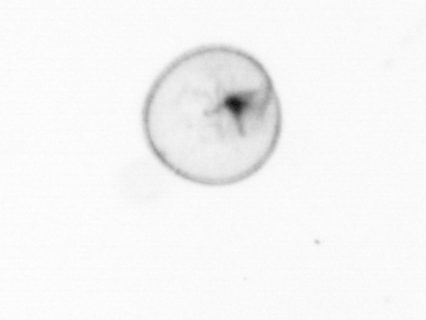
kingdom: Chromista
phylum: Myzozoa
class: Dinophyceae
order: Noctilucales
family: Noctilucaceae
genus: Noctiluca
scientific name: Noctiluca scintillans
